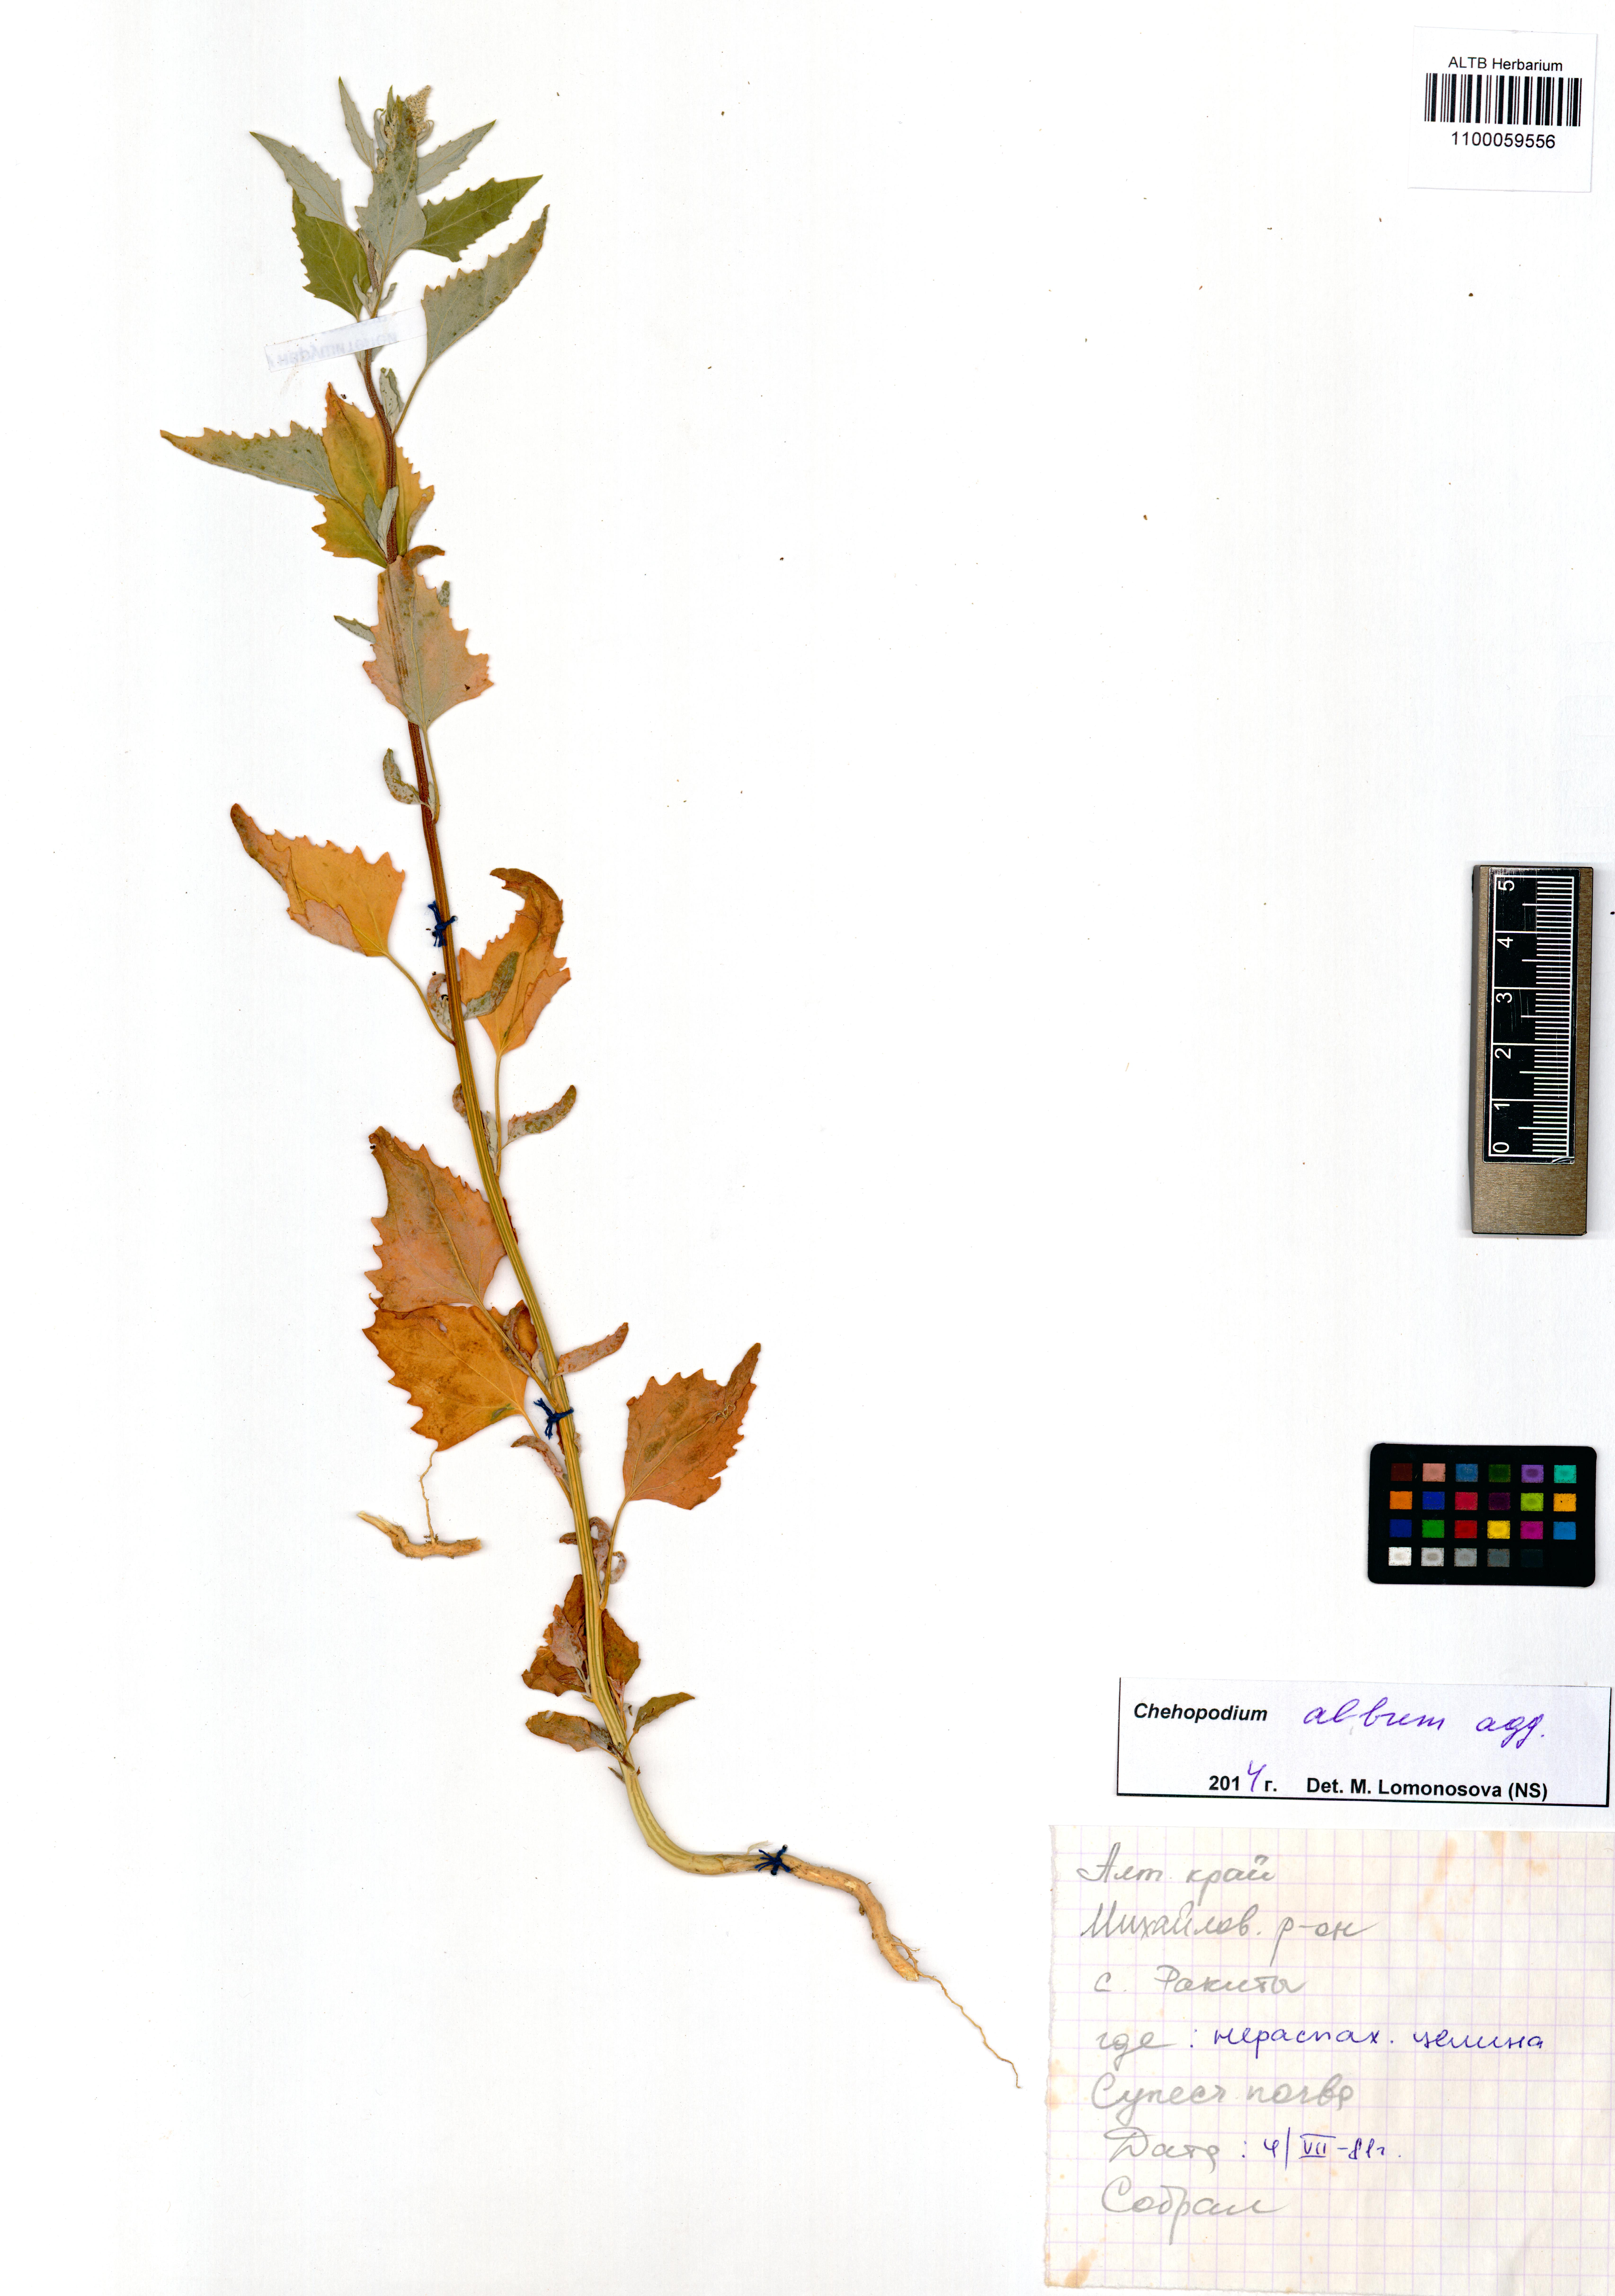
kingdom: Plantae
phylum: Tracheophyta
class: Magnoliopsida
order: Caryophyllales
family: Amaranthaceae
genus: Chenopodium
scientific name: Chenopodium album
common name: Fat-hen
